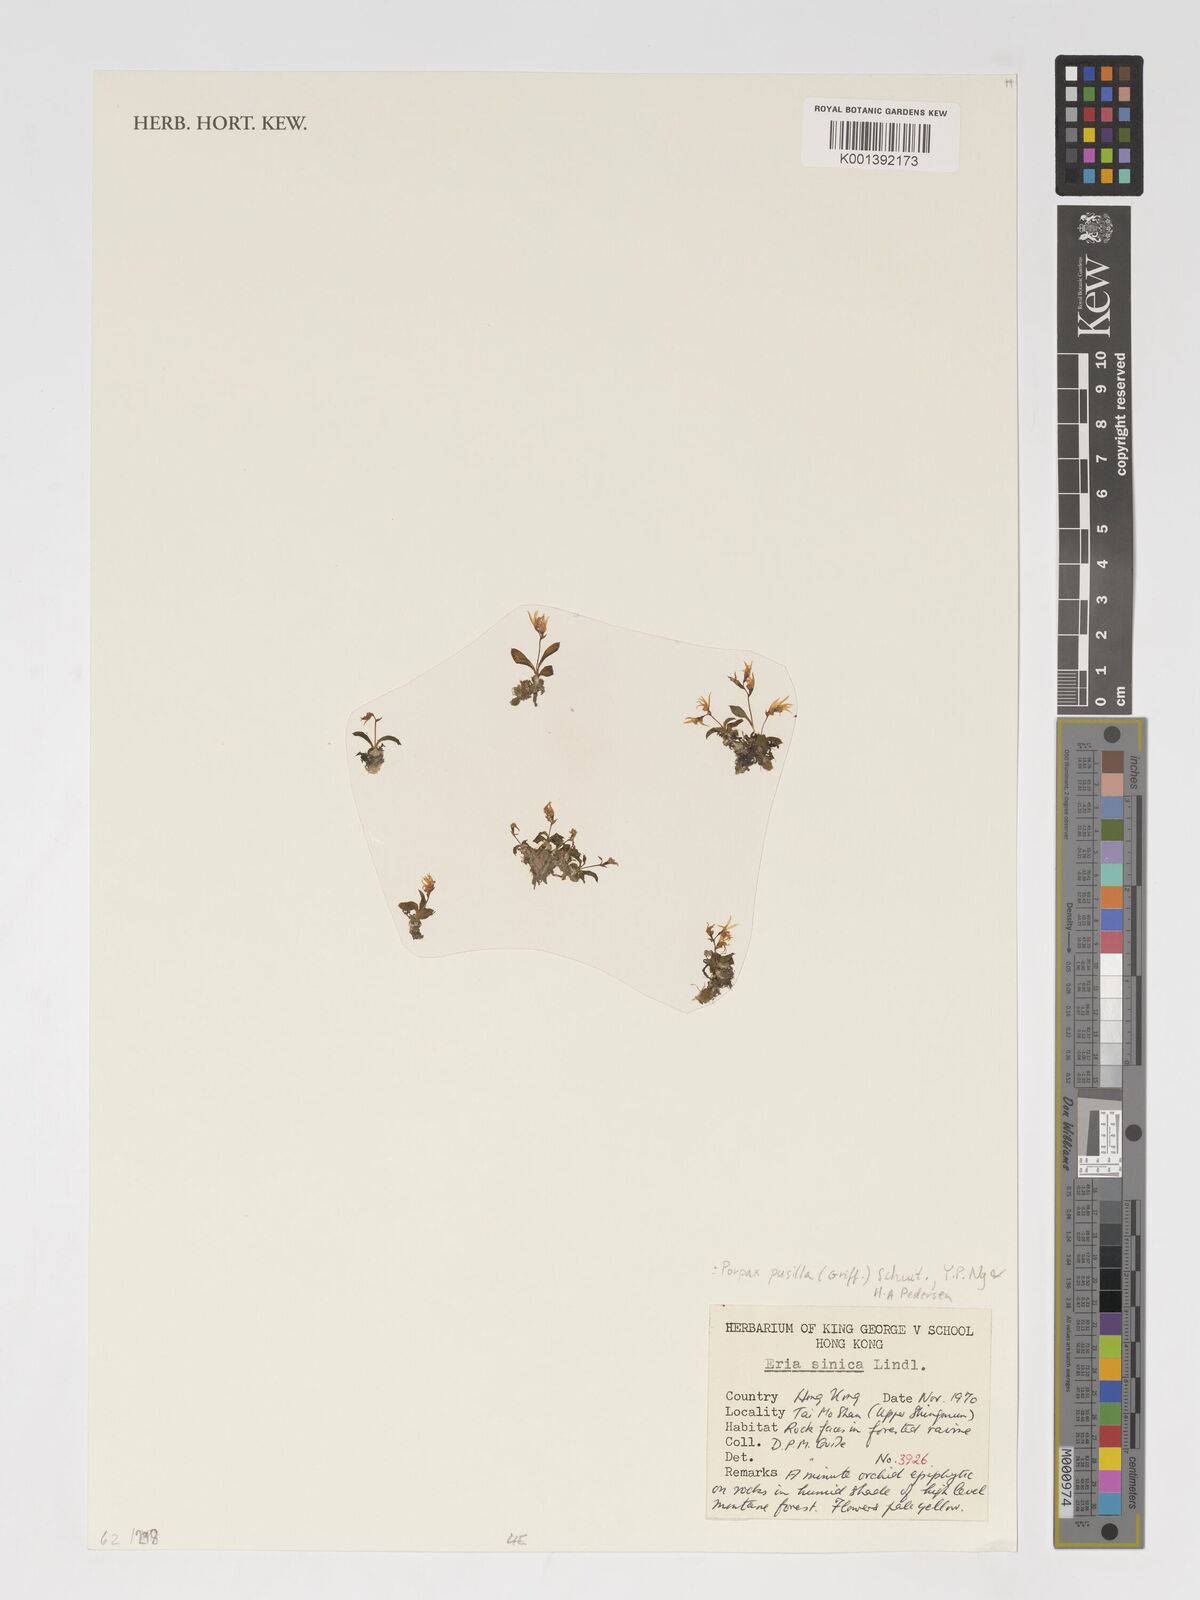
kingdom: Plantae
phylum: Tracheophyta
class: Liliopsida
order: Asparagales
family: Orchidaceae
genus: Porpax
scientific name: Porpax pusilla
